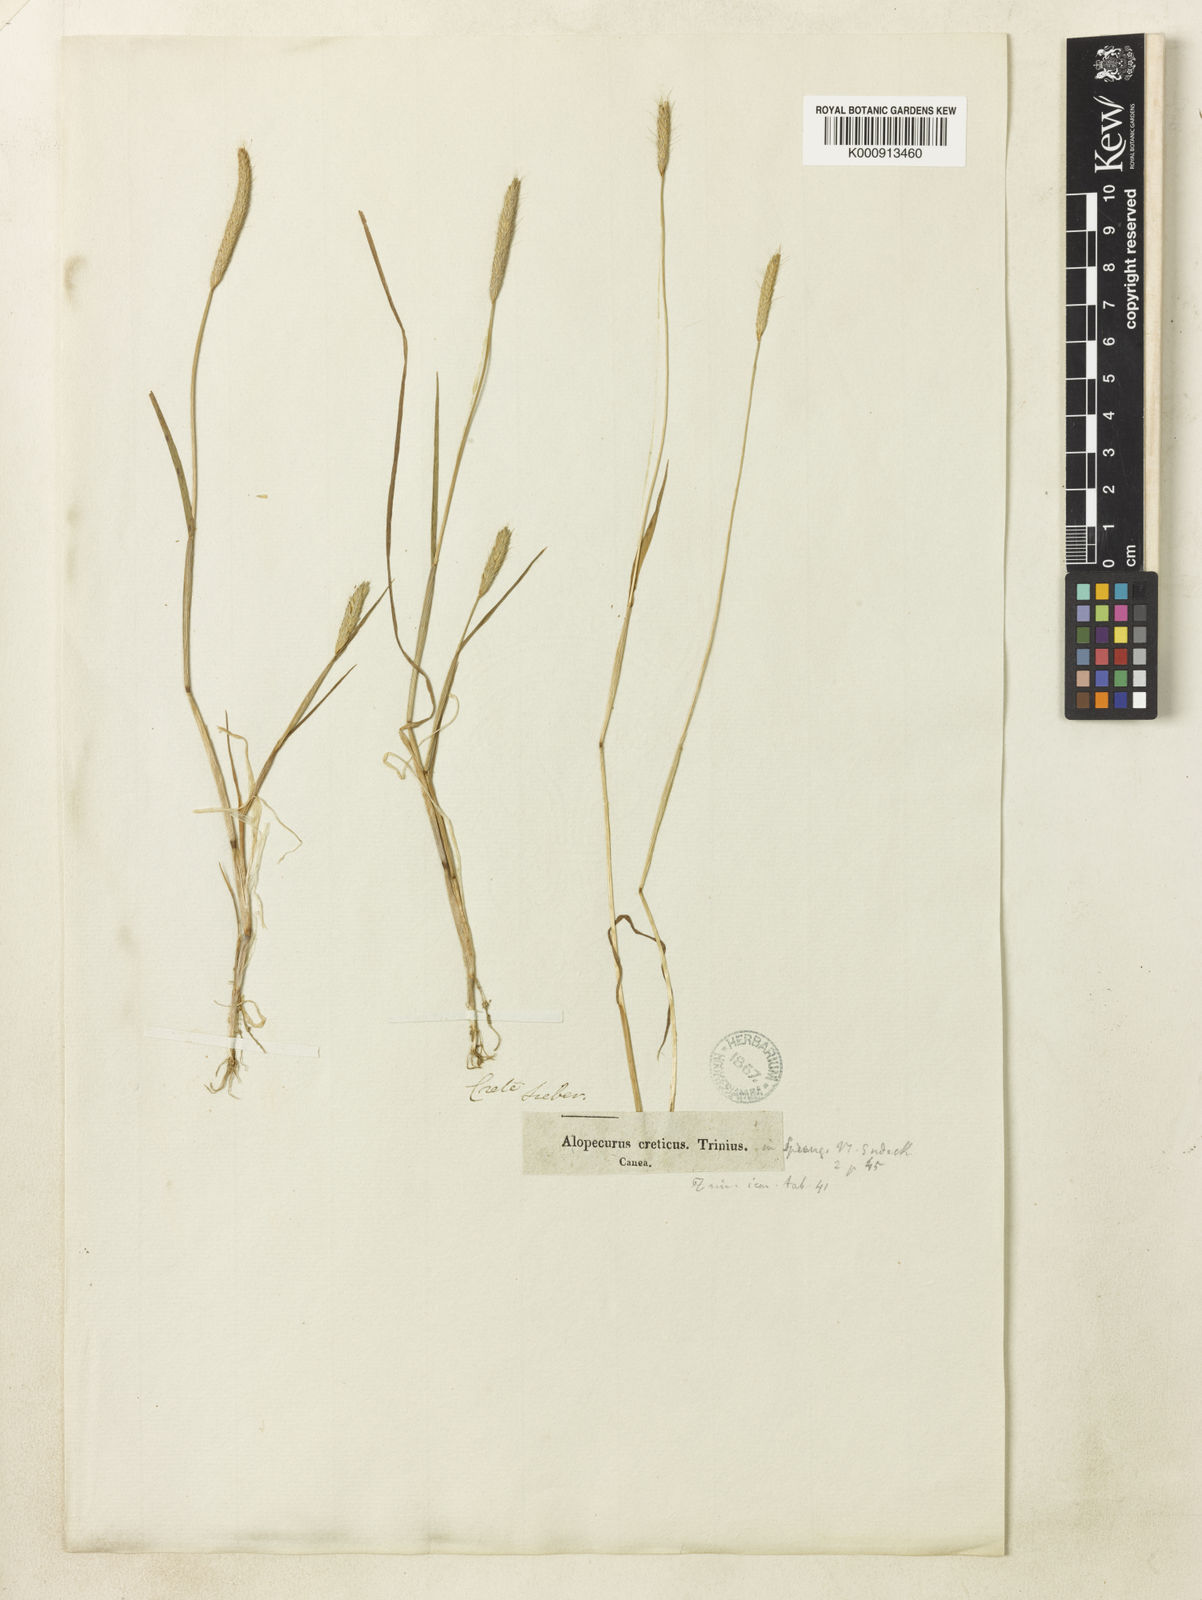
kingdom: Plantae
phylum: Tracheophyta
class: Liliopsida
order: Poales
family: Poaceae
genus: Alopecurus
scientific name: Alopecurus creticus
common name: Cretan meadow foxtail
